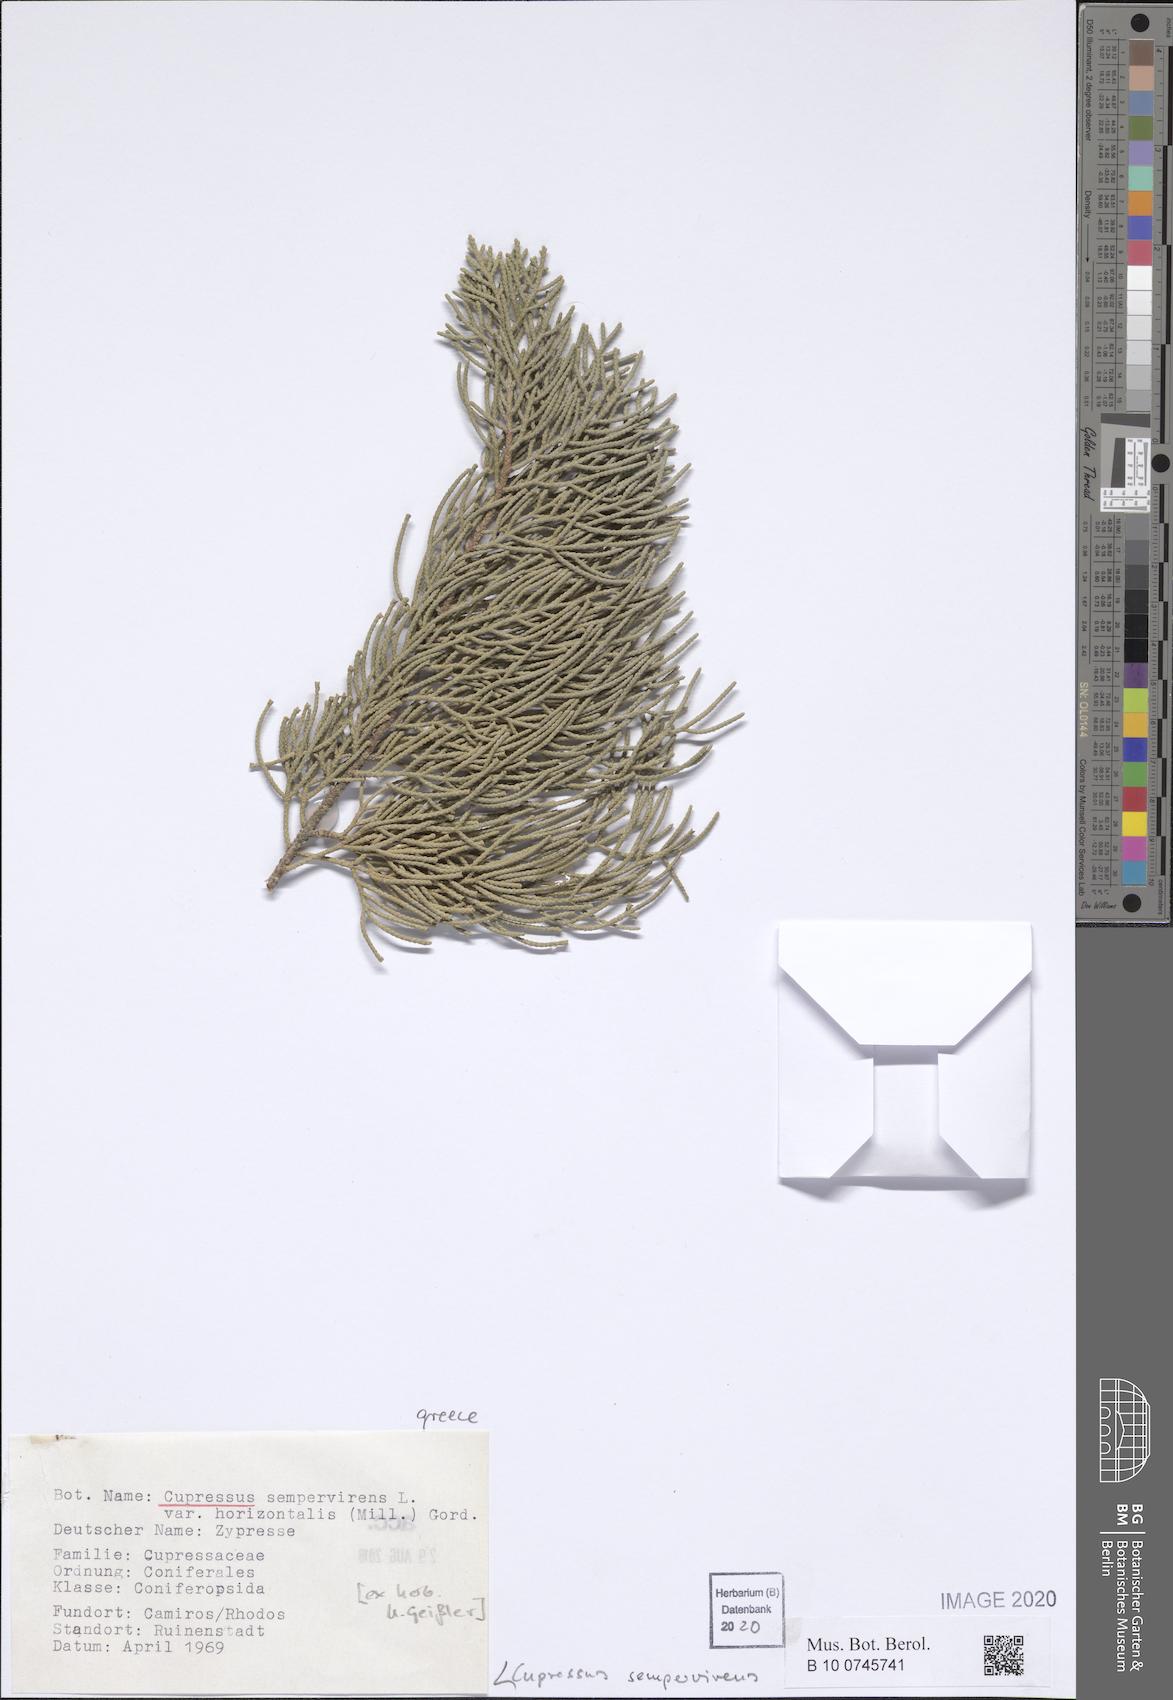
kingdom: Plantae
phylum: Tracheophyta
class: Pinopsida
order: Pinales
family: Cupressaceae
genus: Cupressus
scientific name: Cupressus sempervirens
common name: Italian cypress
